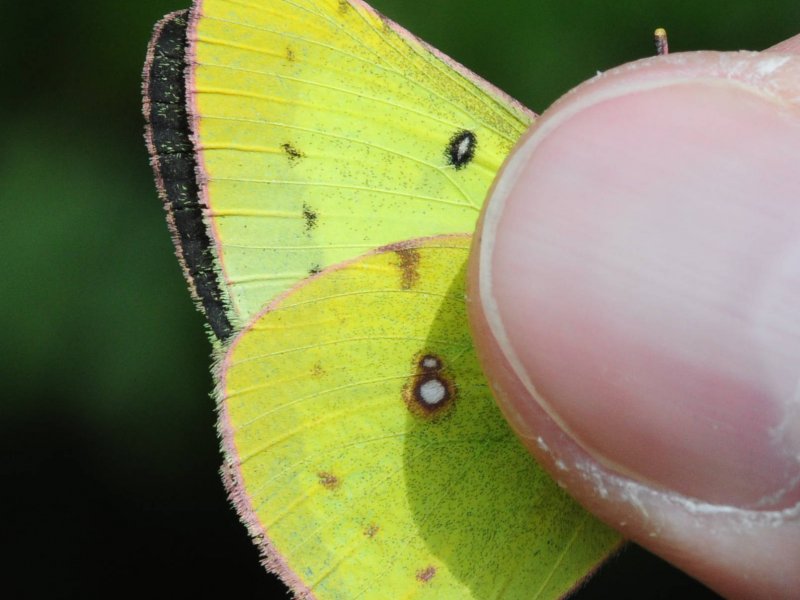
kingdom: Animalia
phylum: Arthropoda
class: Insecta
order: Lepidoptera
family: Pieridae
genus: Colias
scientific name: Colias philodice
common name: Clouded Sulphur
